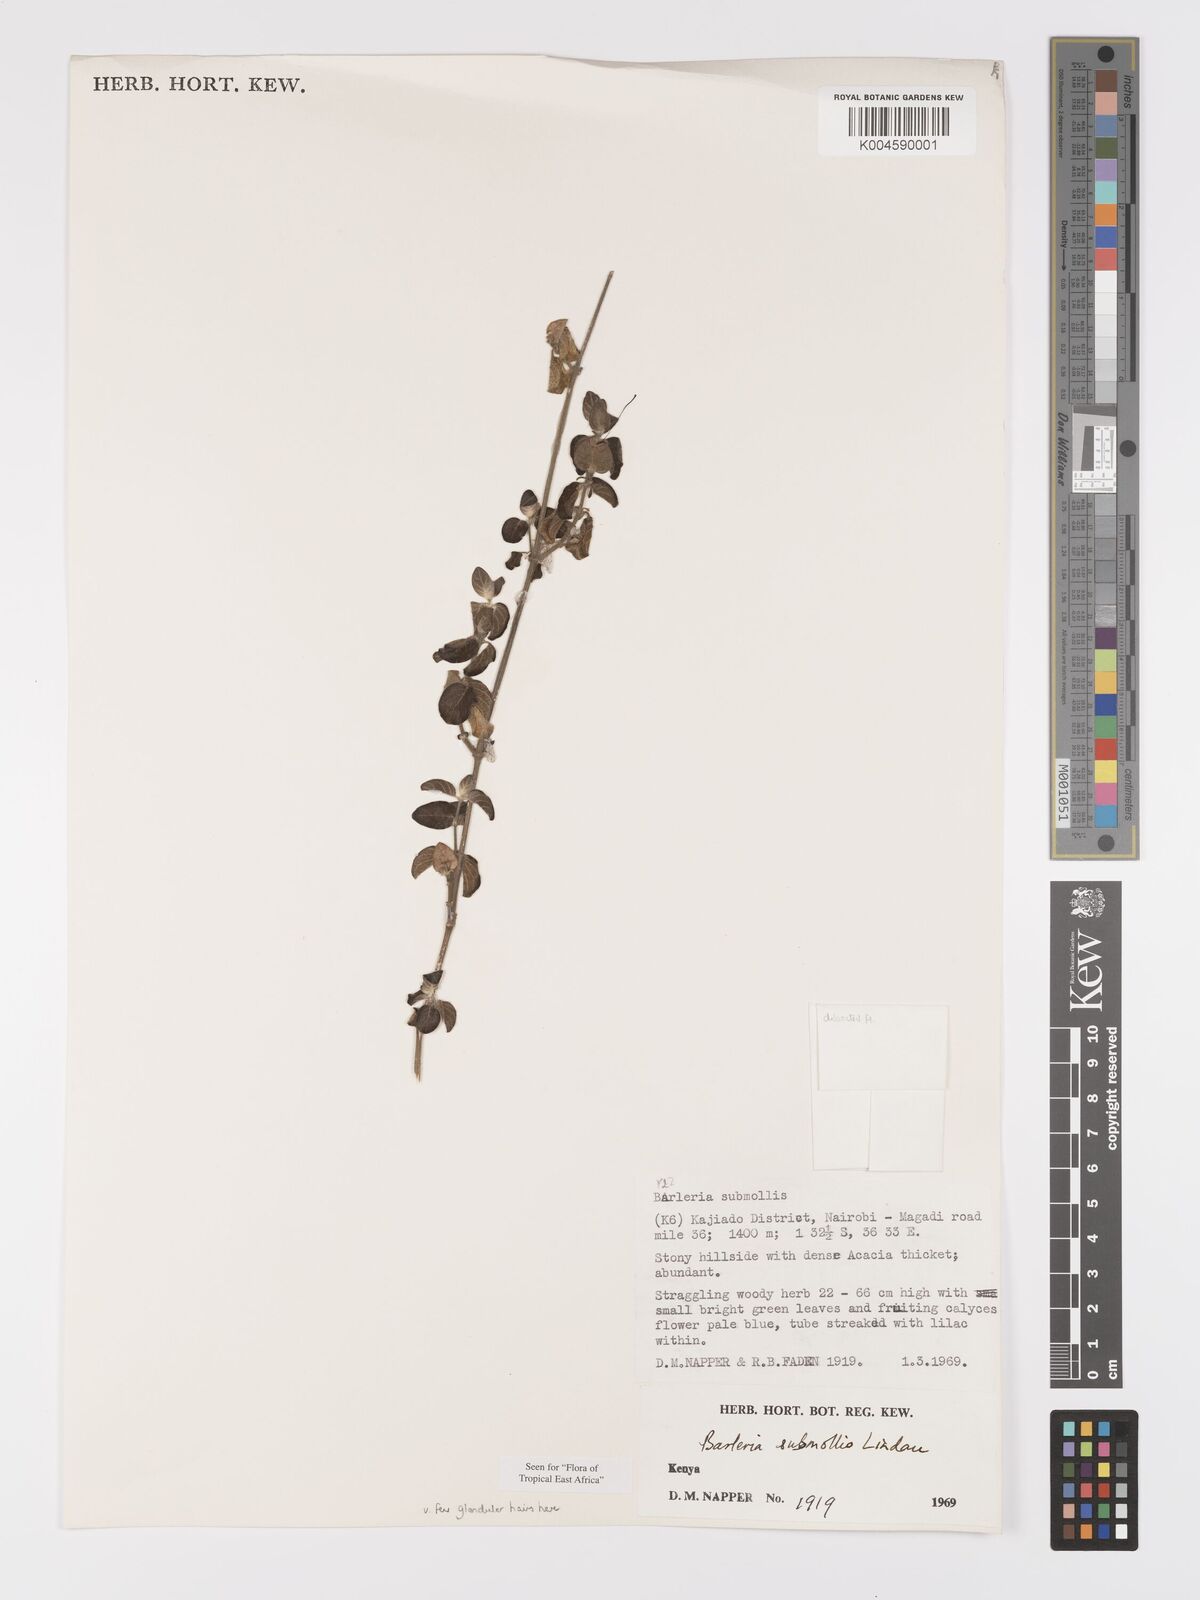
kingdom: Plantae
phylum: Tracheophyta
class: Magnoliopsida
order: Lamiales
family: Acanthaceae
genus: Barleria
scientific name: Barleria submollis
